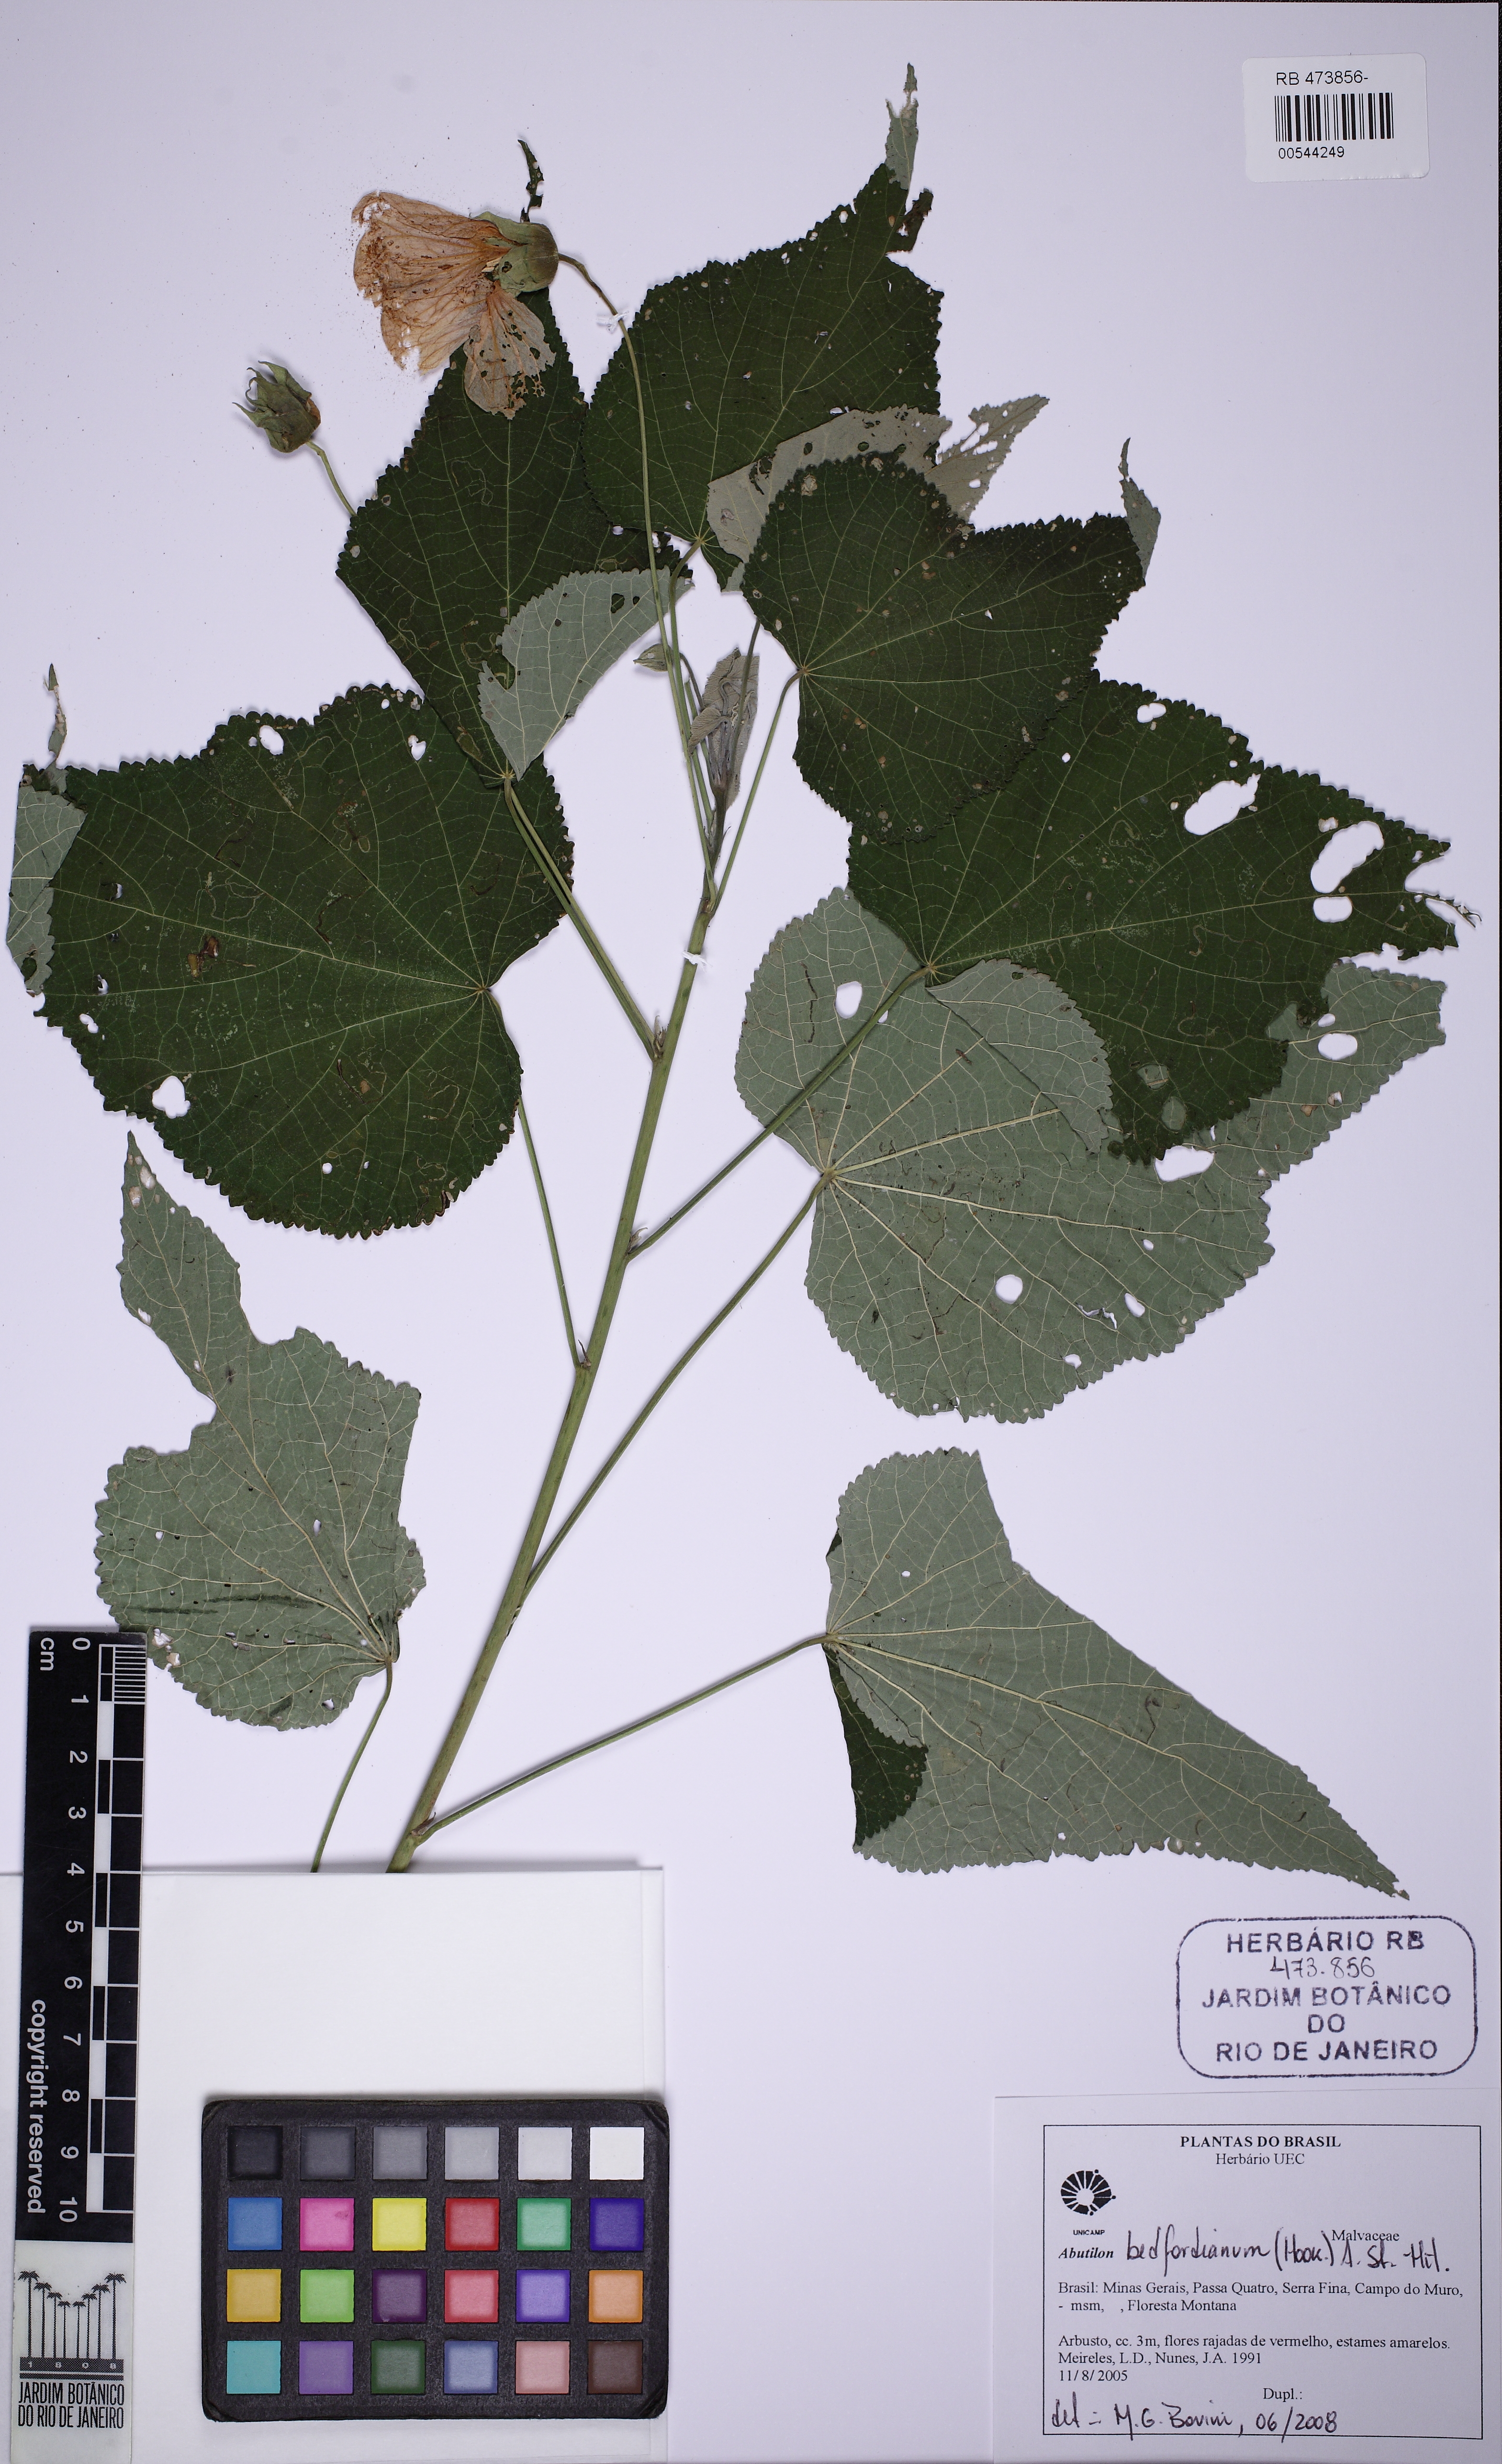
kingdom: Plantae
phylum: Tracheophyta
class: Magnoliopsida
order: Malvales
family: Malvaceae
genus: Callianthe
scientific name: Callianthe bedfordiana
